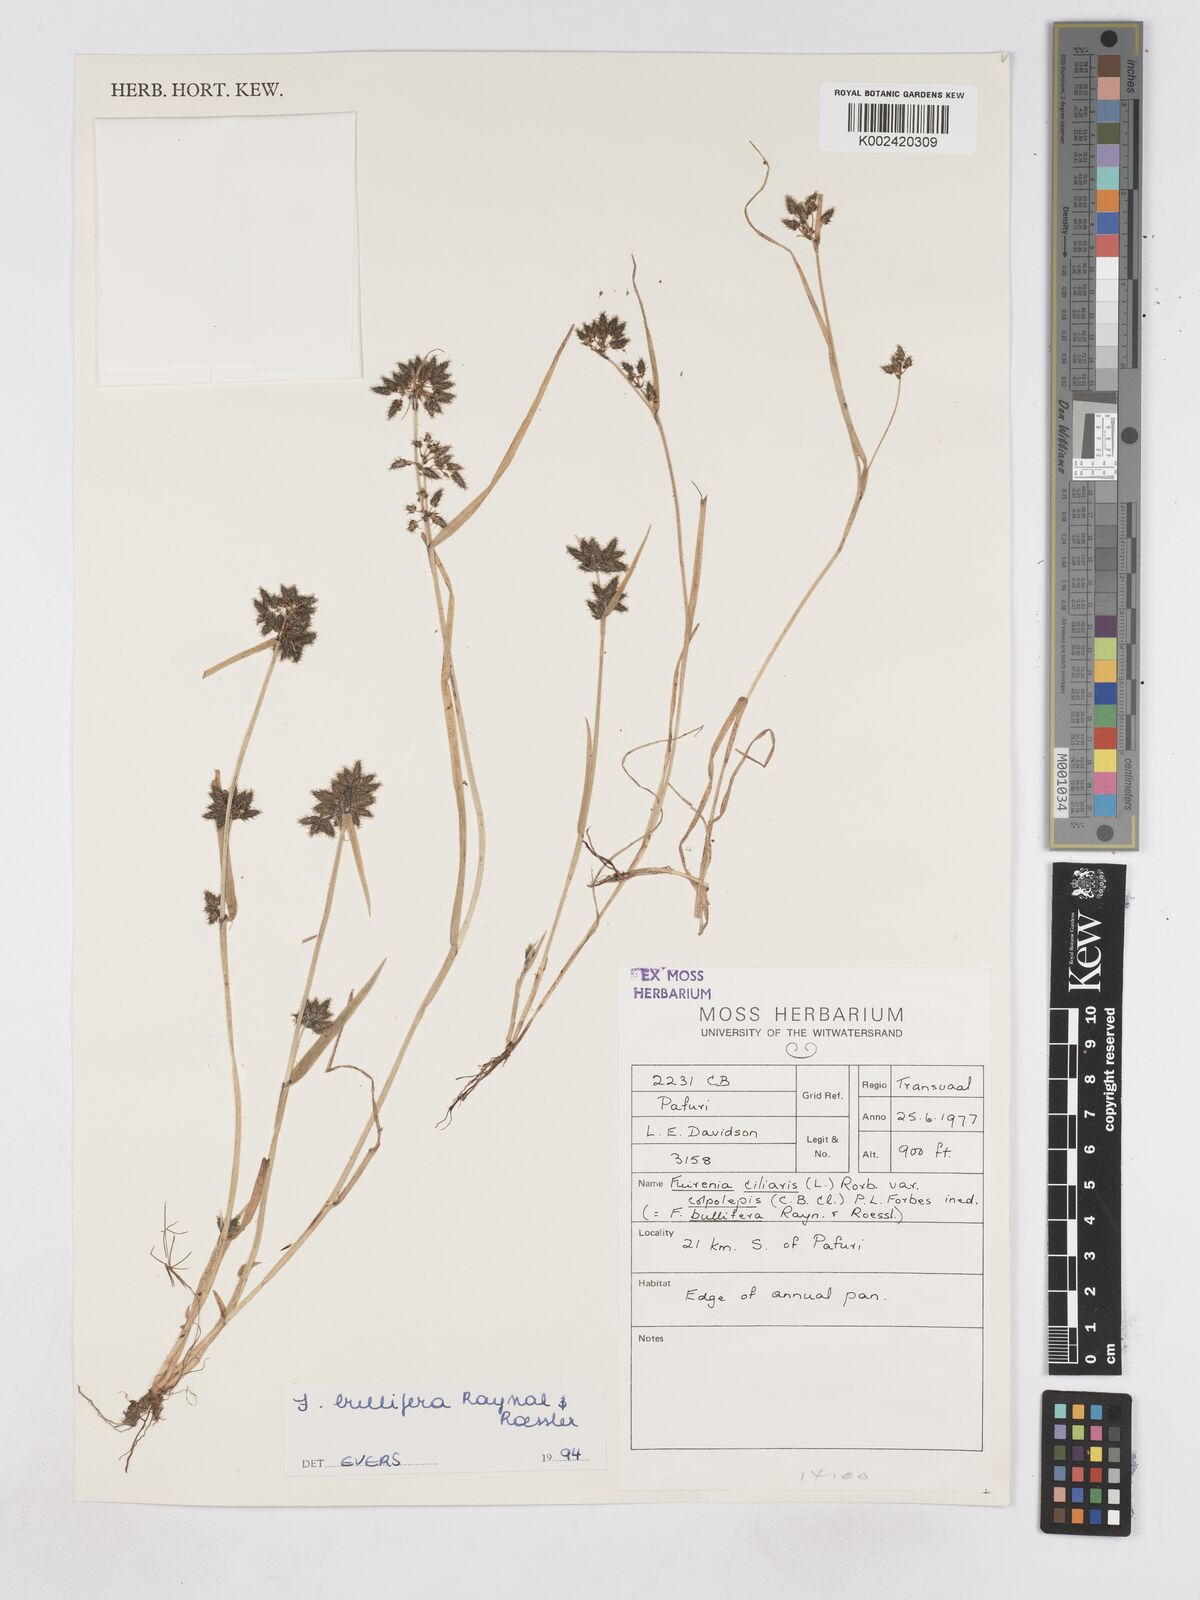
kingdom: Plantae
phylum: Tracheophyta
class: Liliopsida
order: Poales
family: Cyperaceae
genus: Fuirena
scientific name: Fuirena bullifera
